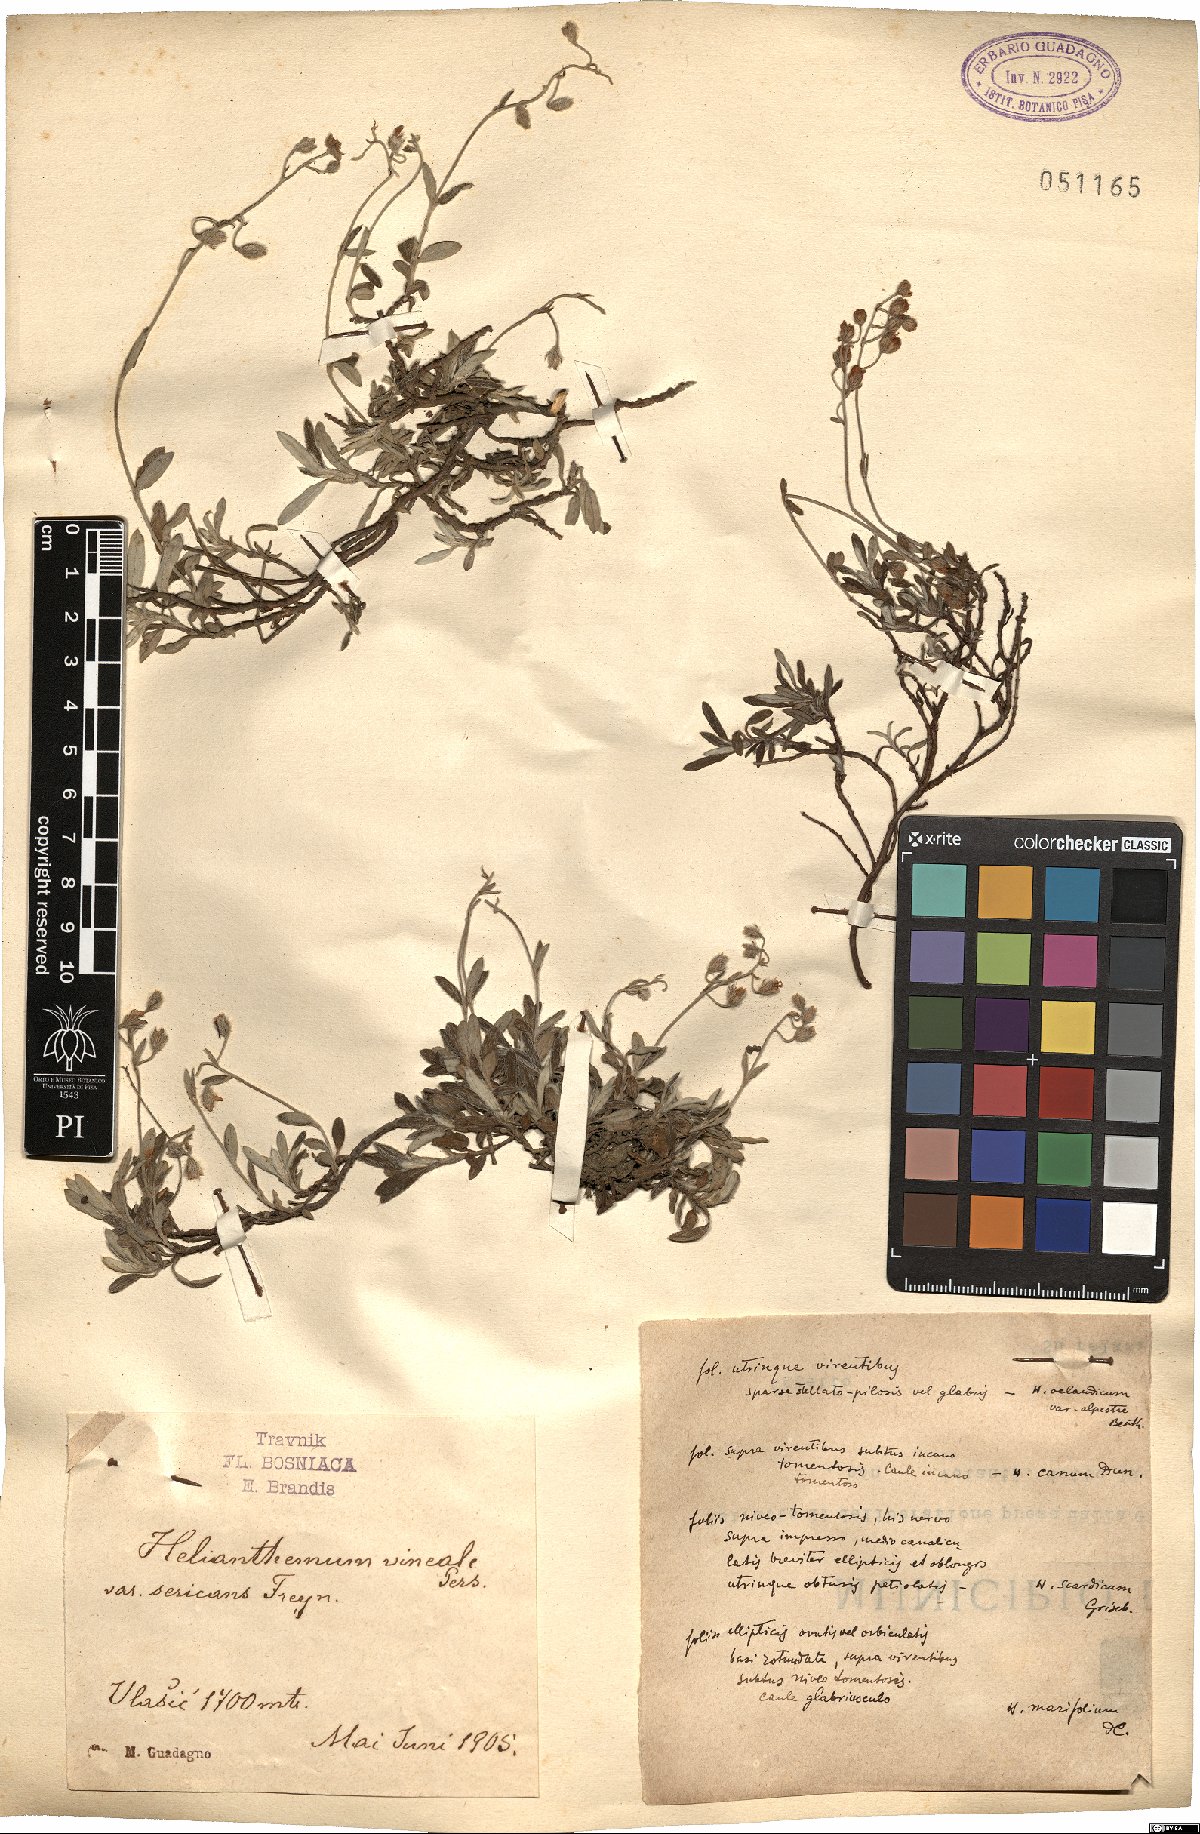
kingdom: Plantae
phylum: Tracheophyta
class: Magnoliopsida
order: Malvales
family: Cistaceae
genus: Helianthemum
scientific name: Helianthemum canum
